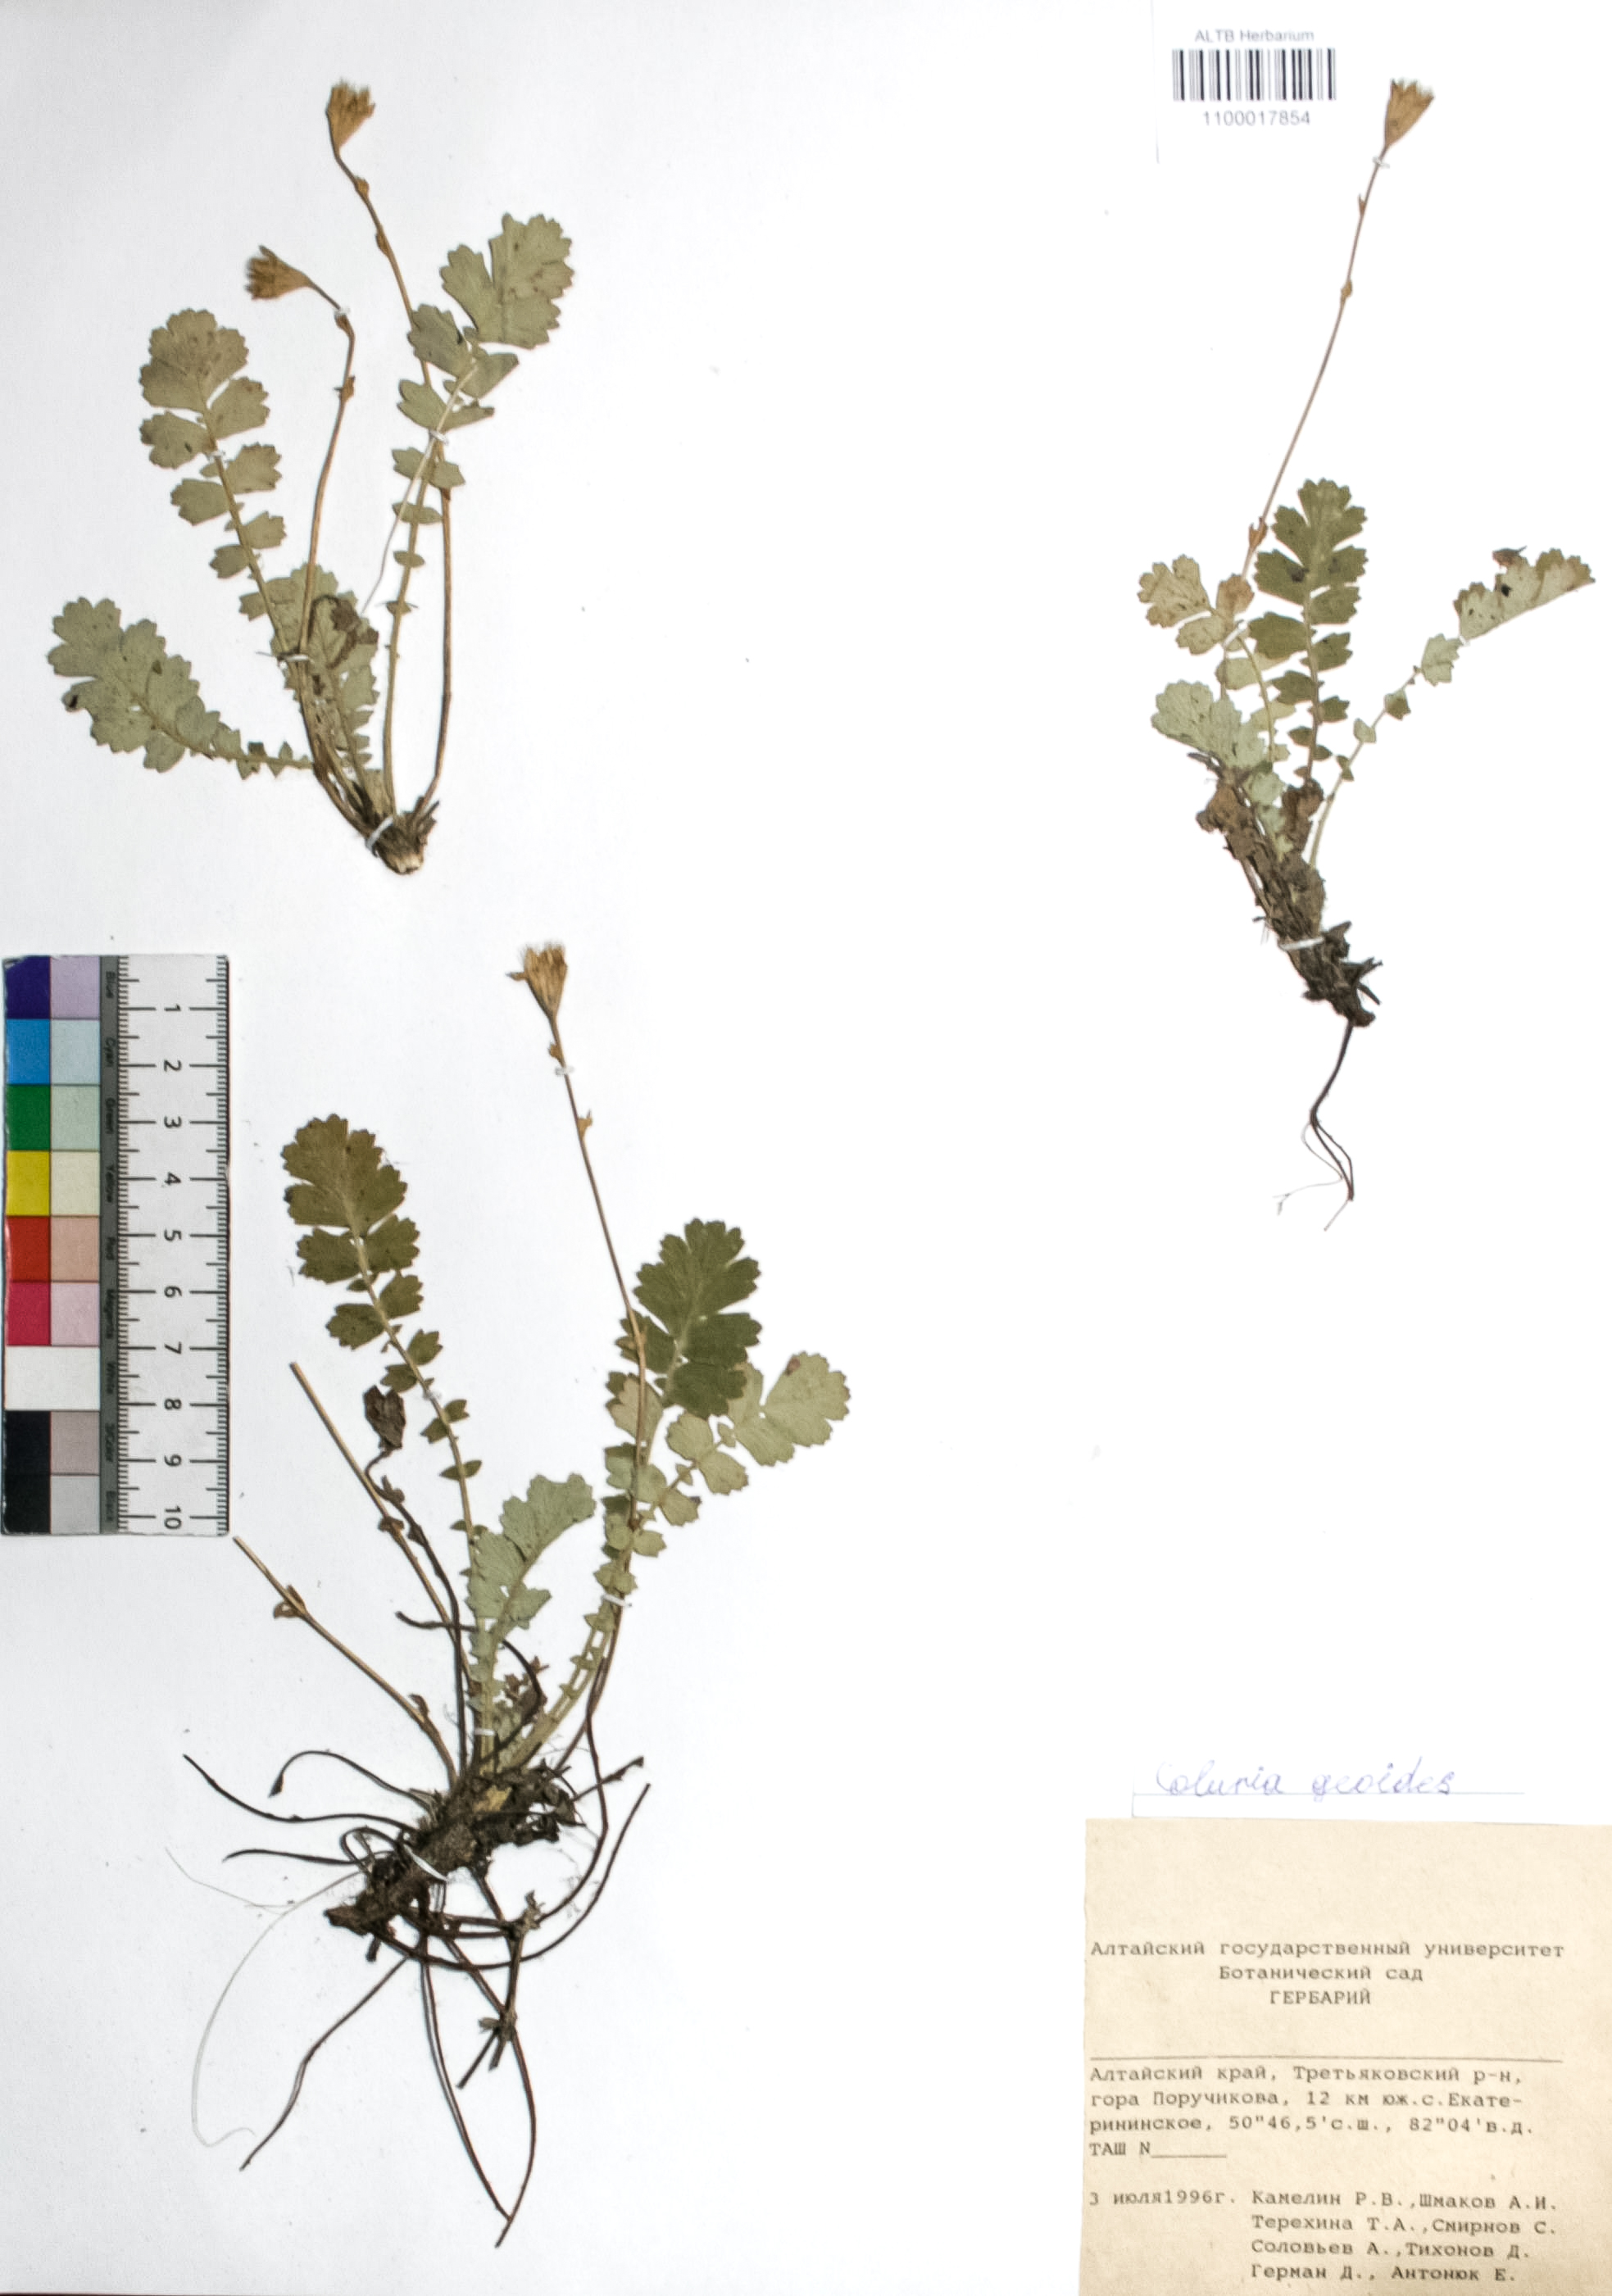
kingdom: Plantae
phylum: Tracheophyta
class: Magnoliopsida
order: Rosales
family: Rosaceae
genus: Geum
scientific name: Geum geoides
